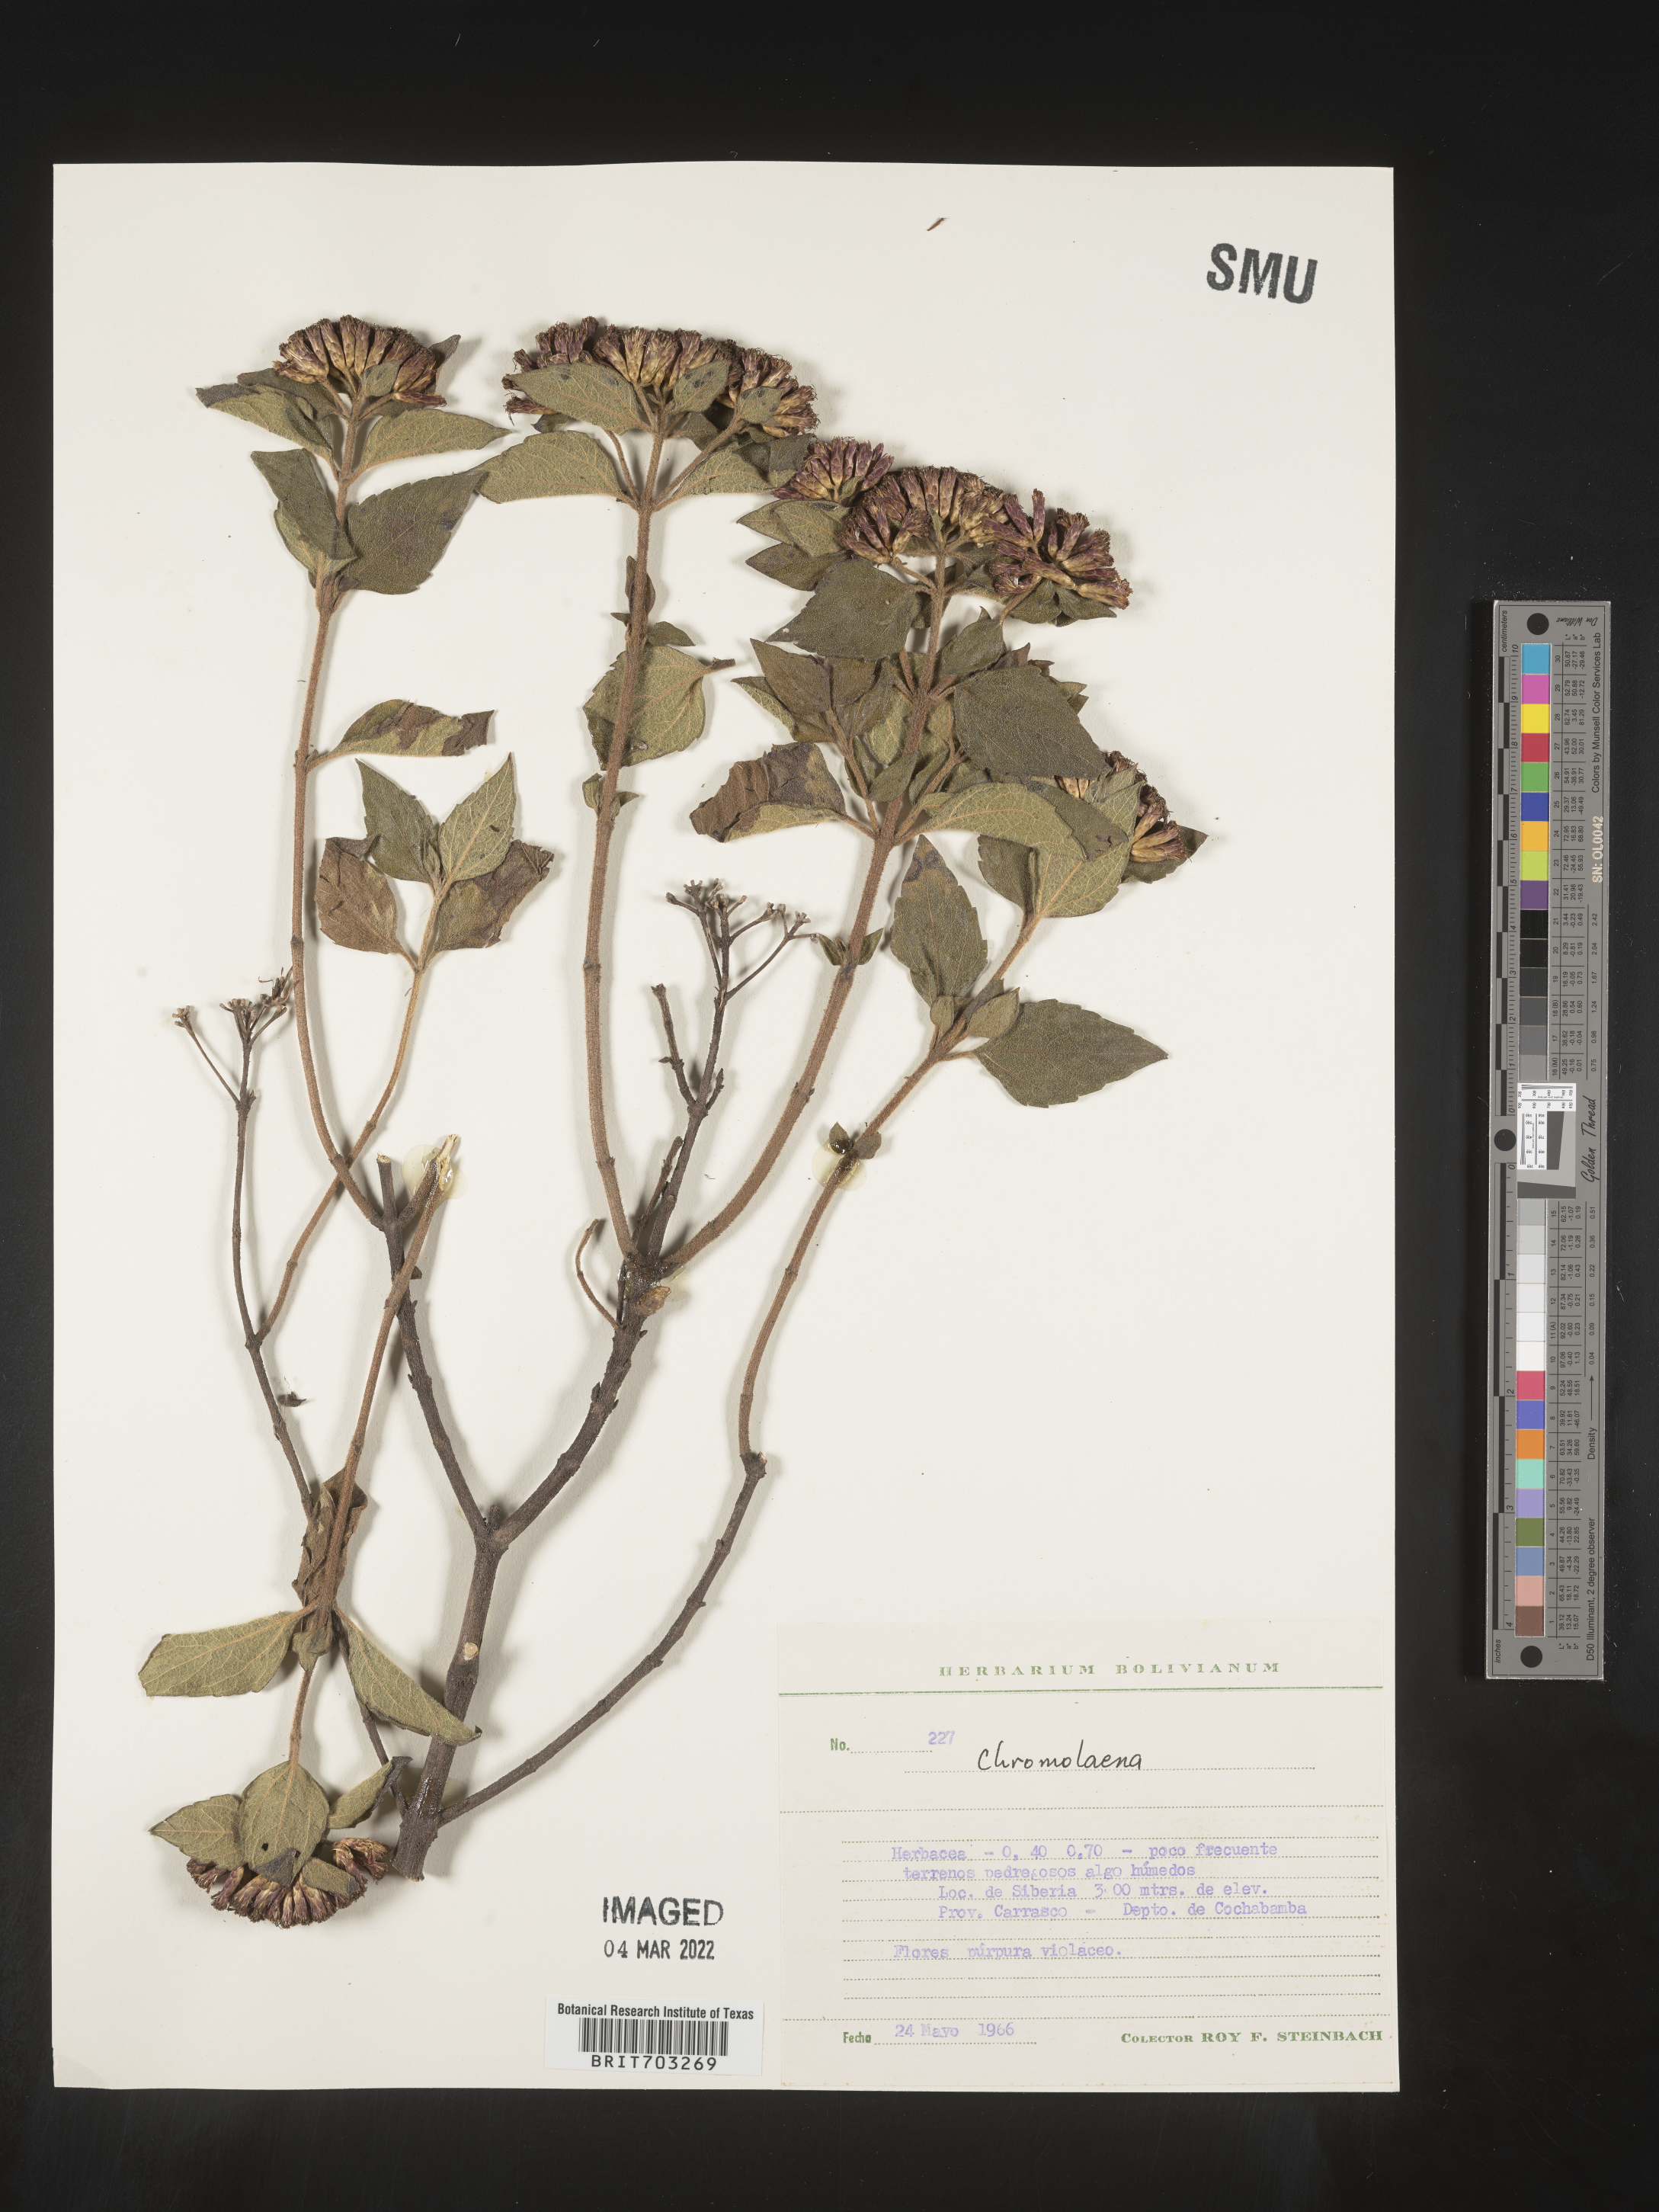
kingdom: Plantae
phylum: Tracheophyta
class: Magnoliopsida
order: Asterales
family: Asteraceae
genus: Eupatorium
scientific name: Eupatorium
